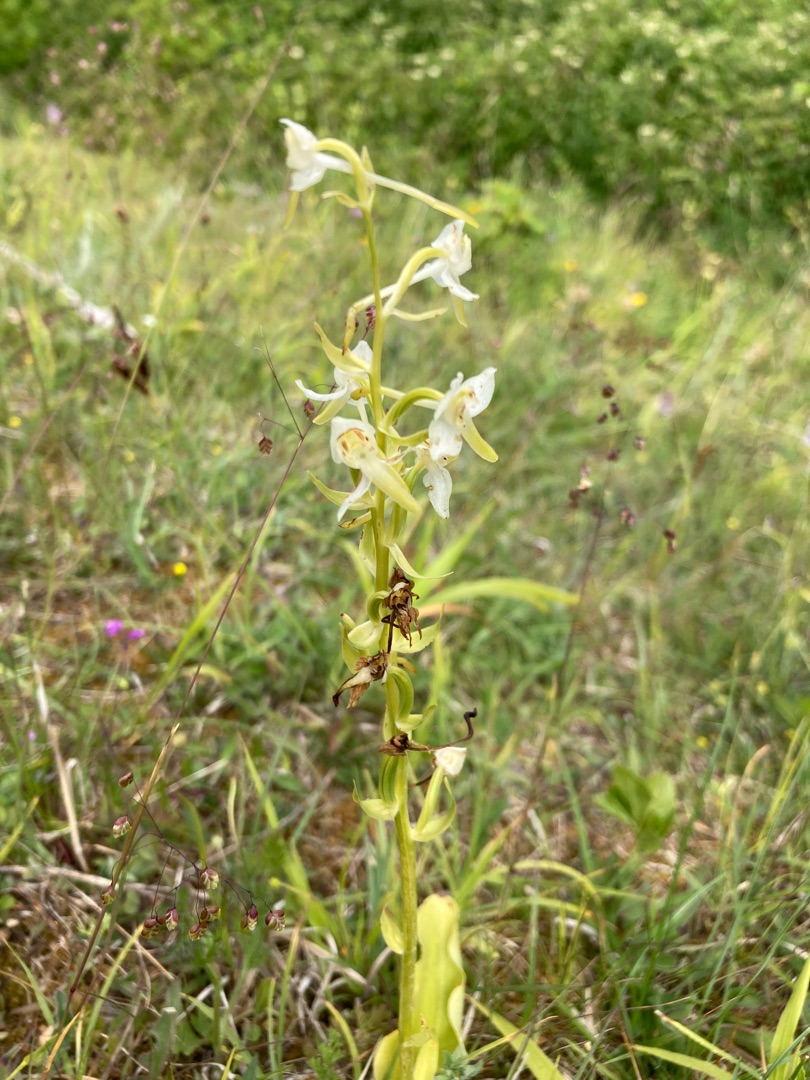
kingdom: Plantae
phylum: Tracheophyta
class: Liliopsida
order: Asparagales
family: Orchidaceae
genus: Platanthera
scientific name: Platanthera chlorantha
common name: Skov-gøgelilje
